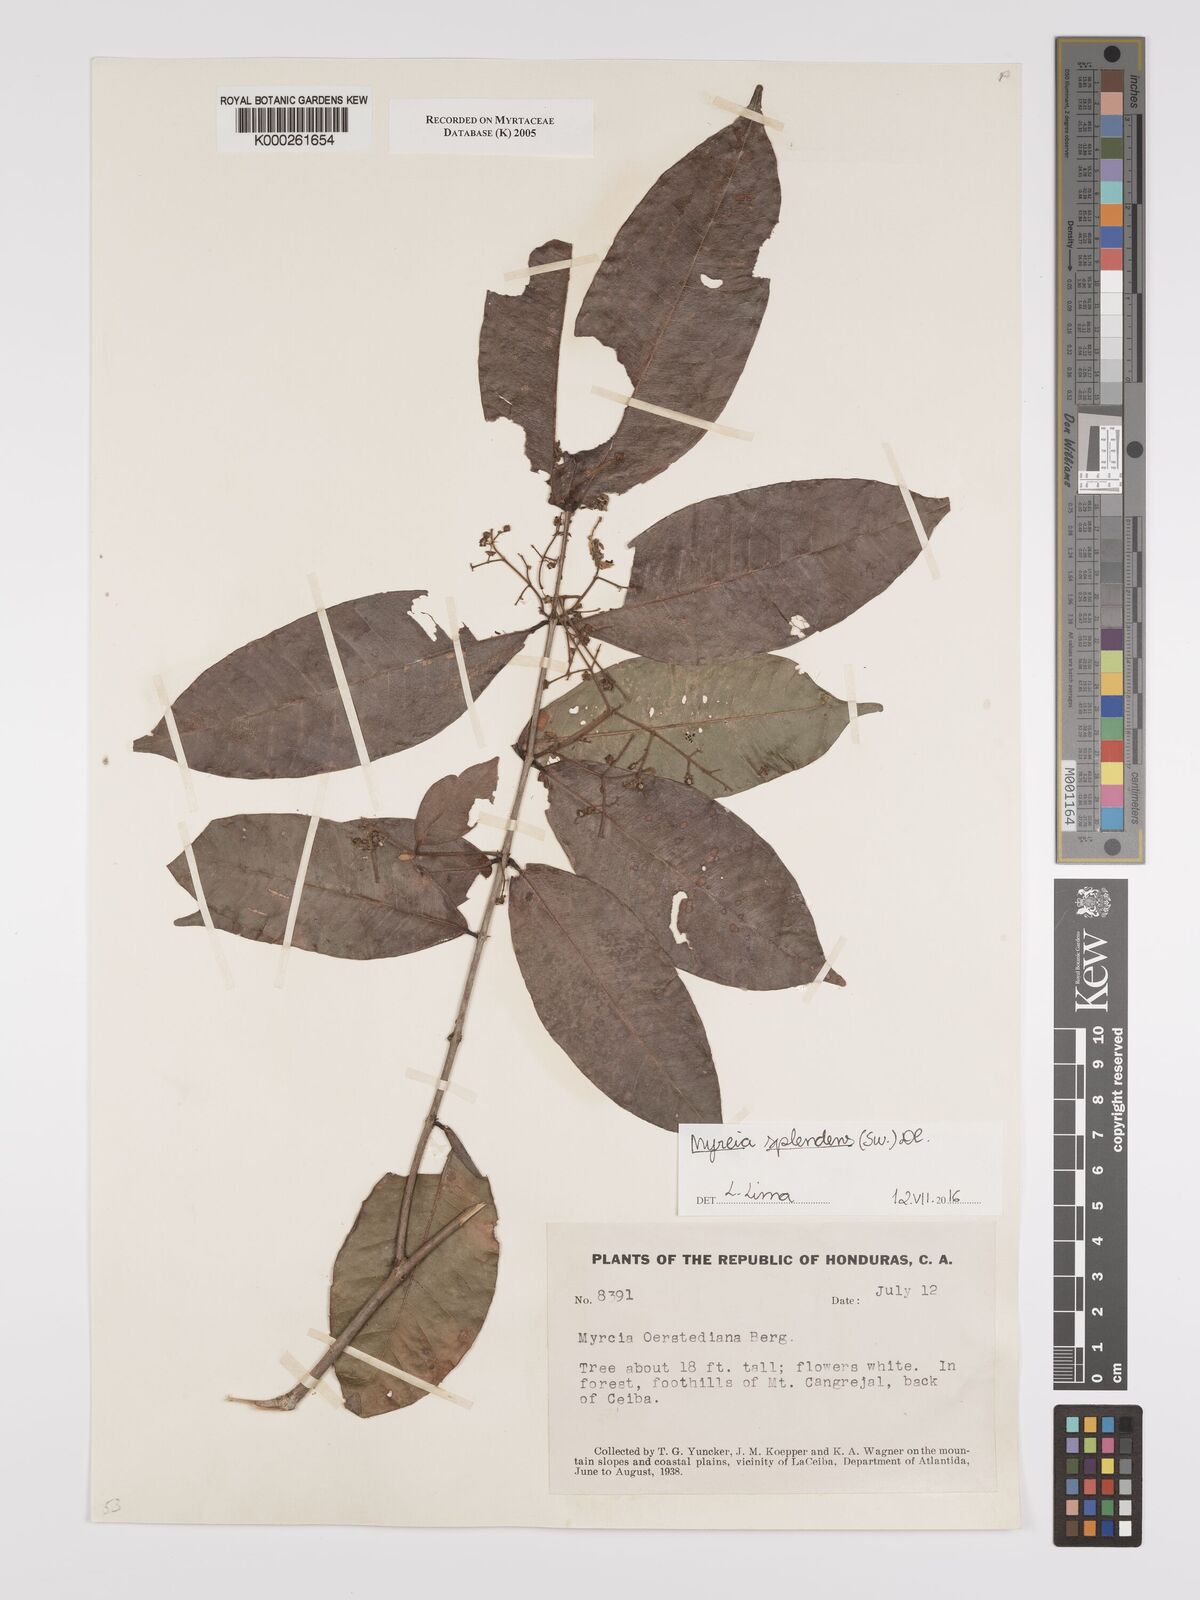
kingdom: Plantae
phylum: Tracheophyta
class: Magnoliopsida
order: Myrtales
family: Myrtaceae
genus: Myrcia
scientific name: Myrcia splendens
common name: Surinam cherry
